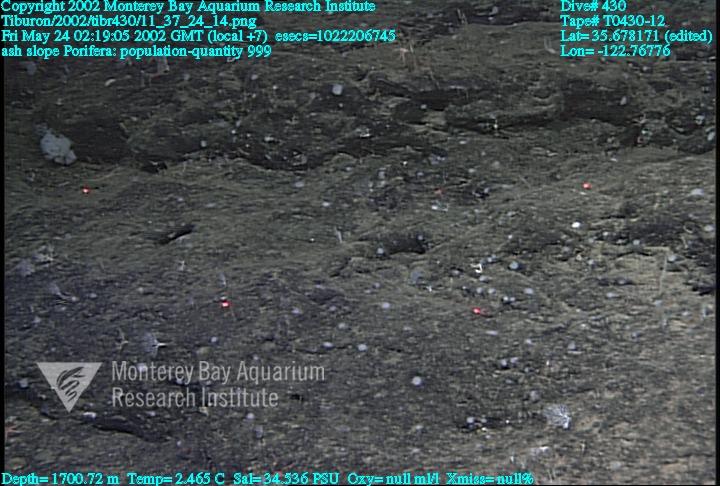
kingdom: Animalia
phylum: Porifera
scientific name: Porifera
